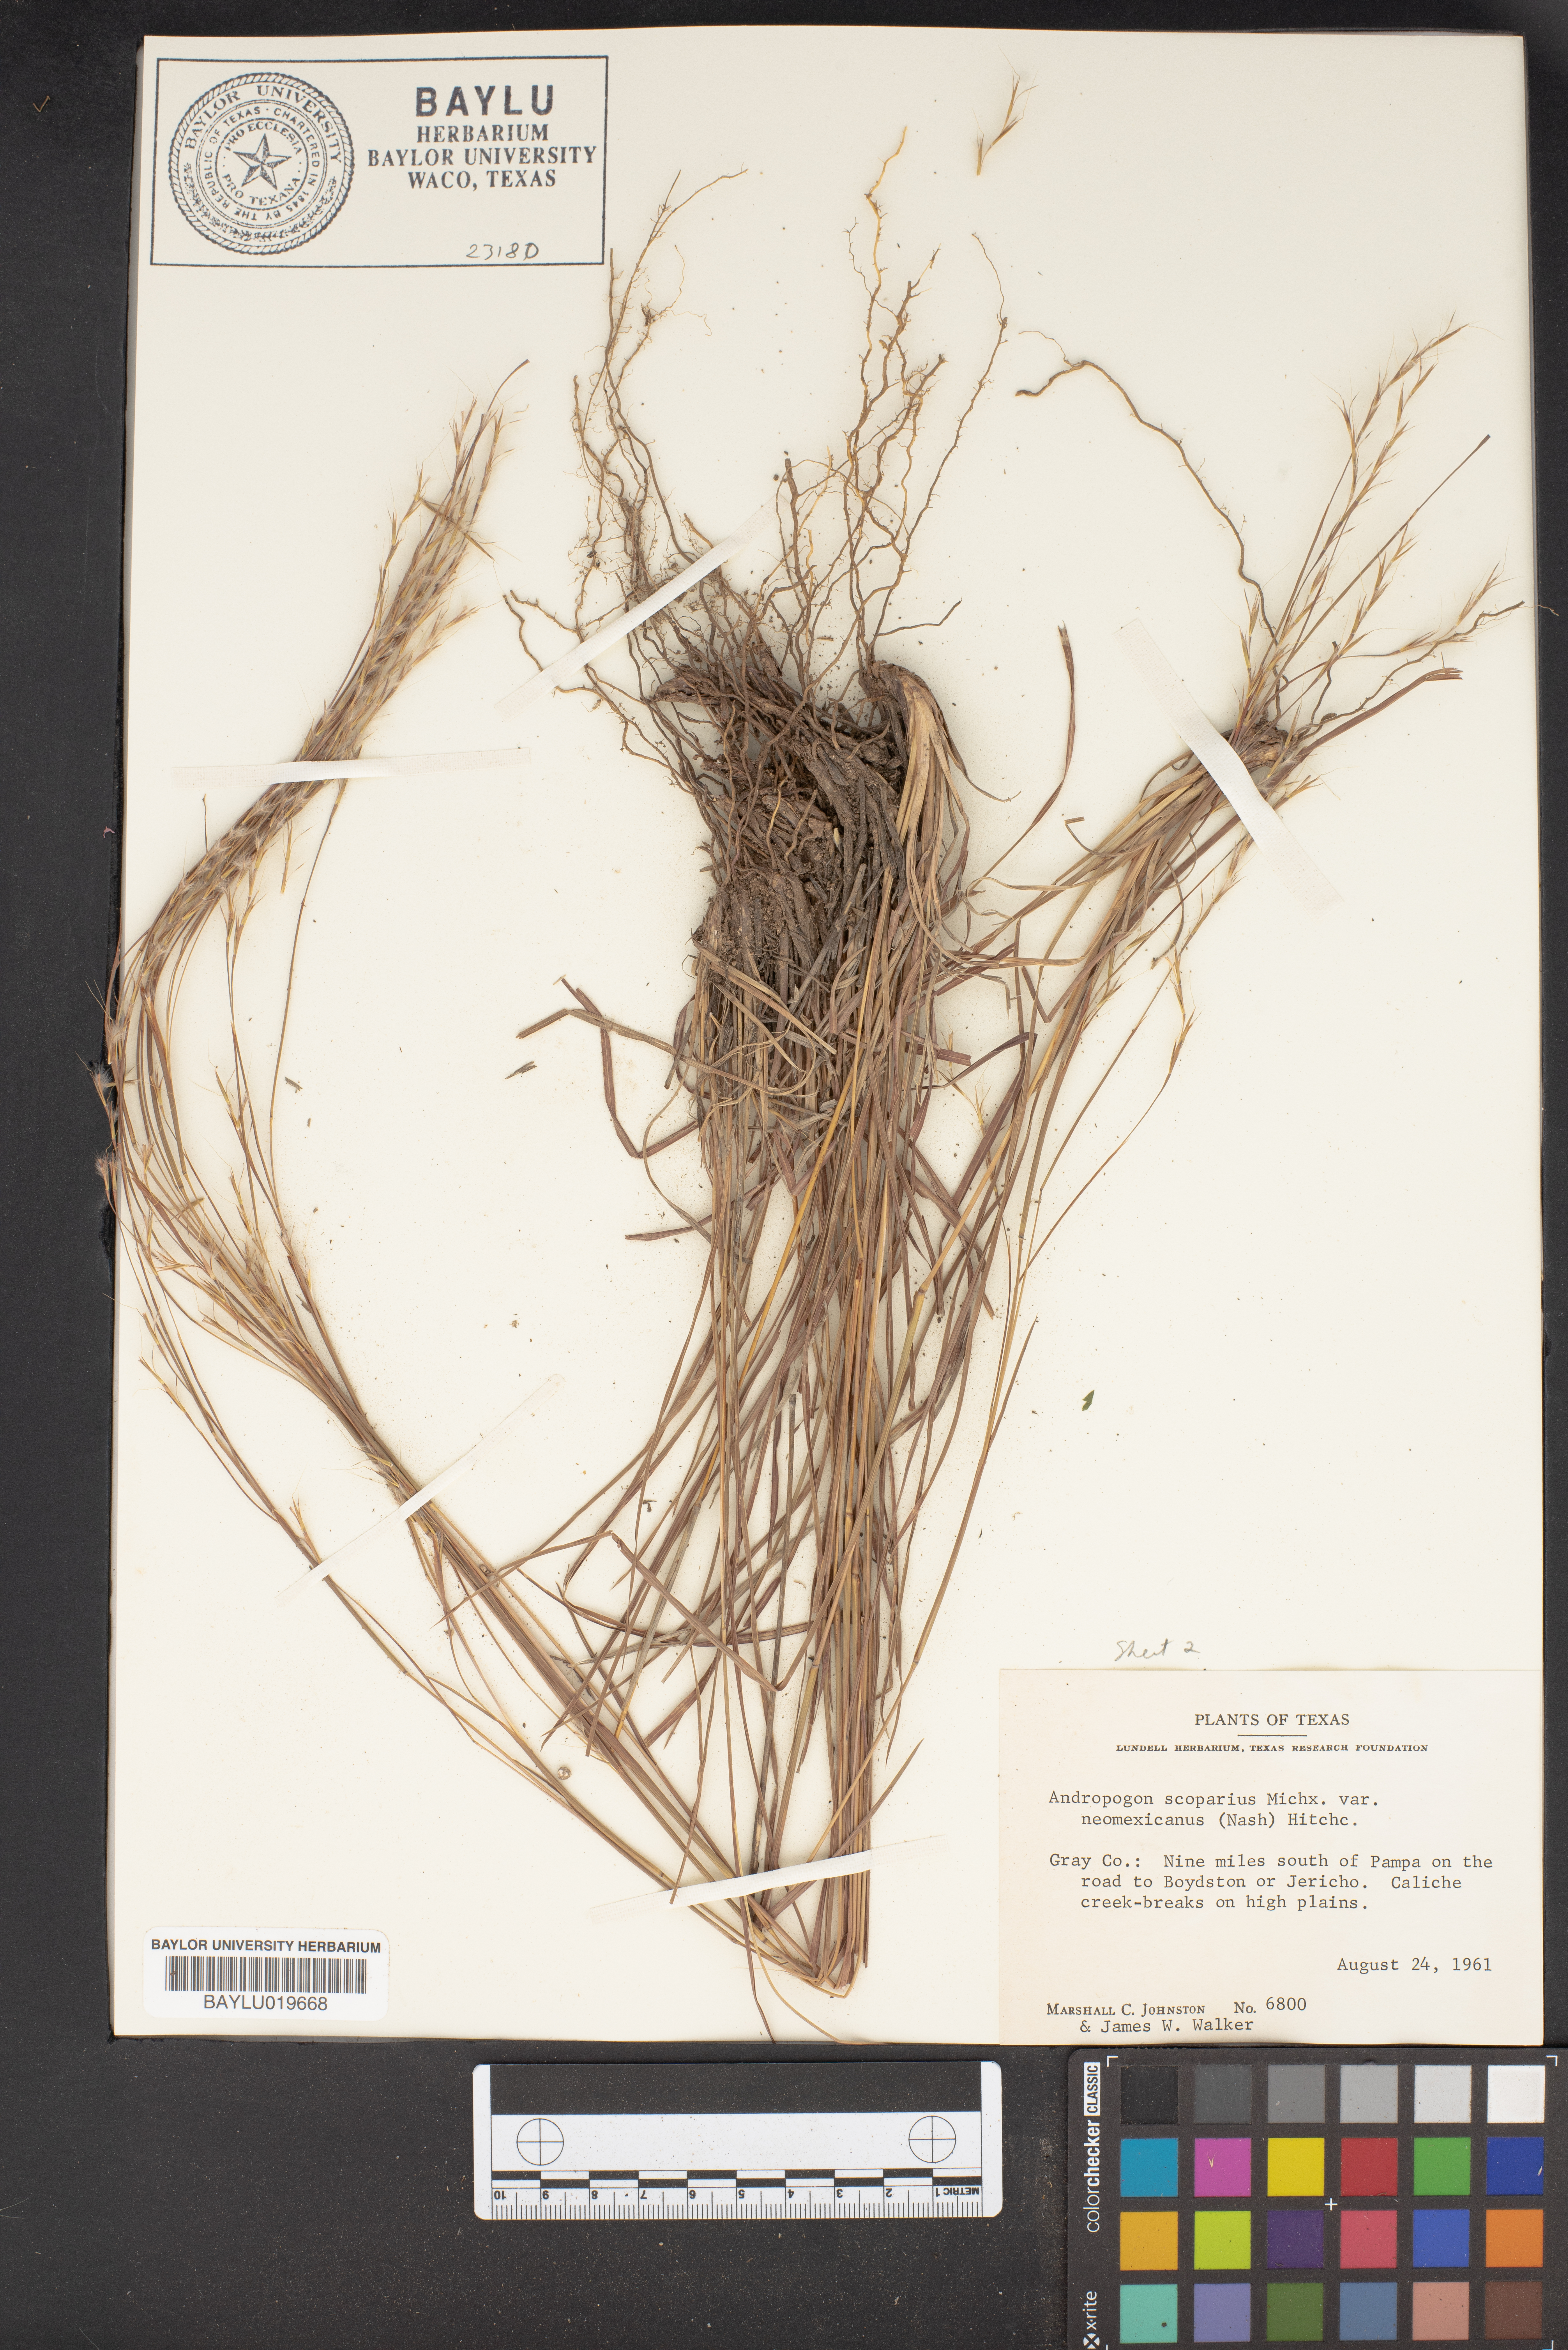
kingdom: Plantae
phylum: Tracheophyta
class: Liliopsida
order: Poales
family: Poaceae
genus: Schizachyrium
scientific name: Schizachyrium scoparium
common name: Little bluestem
